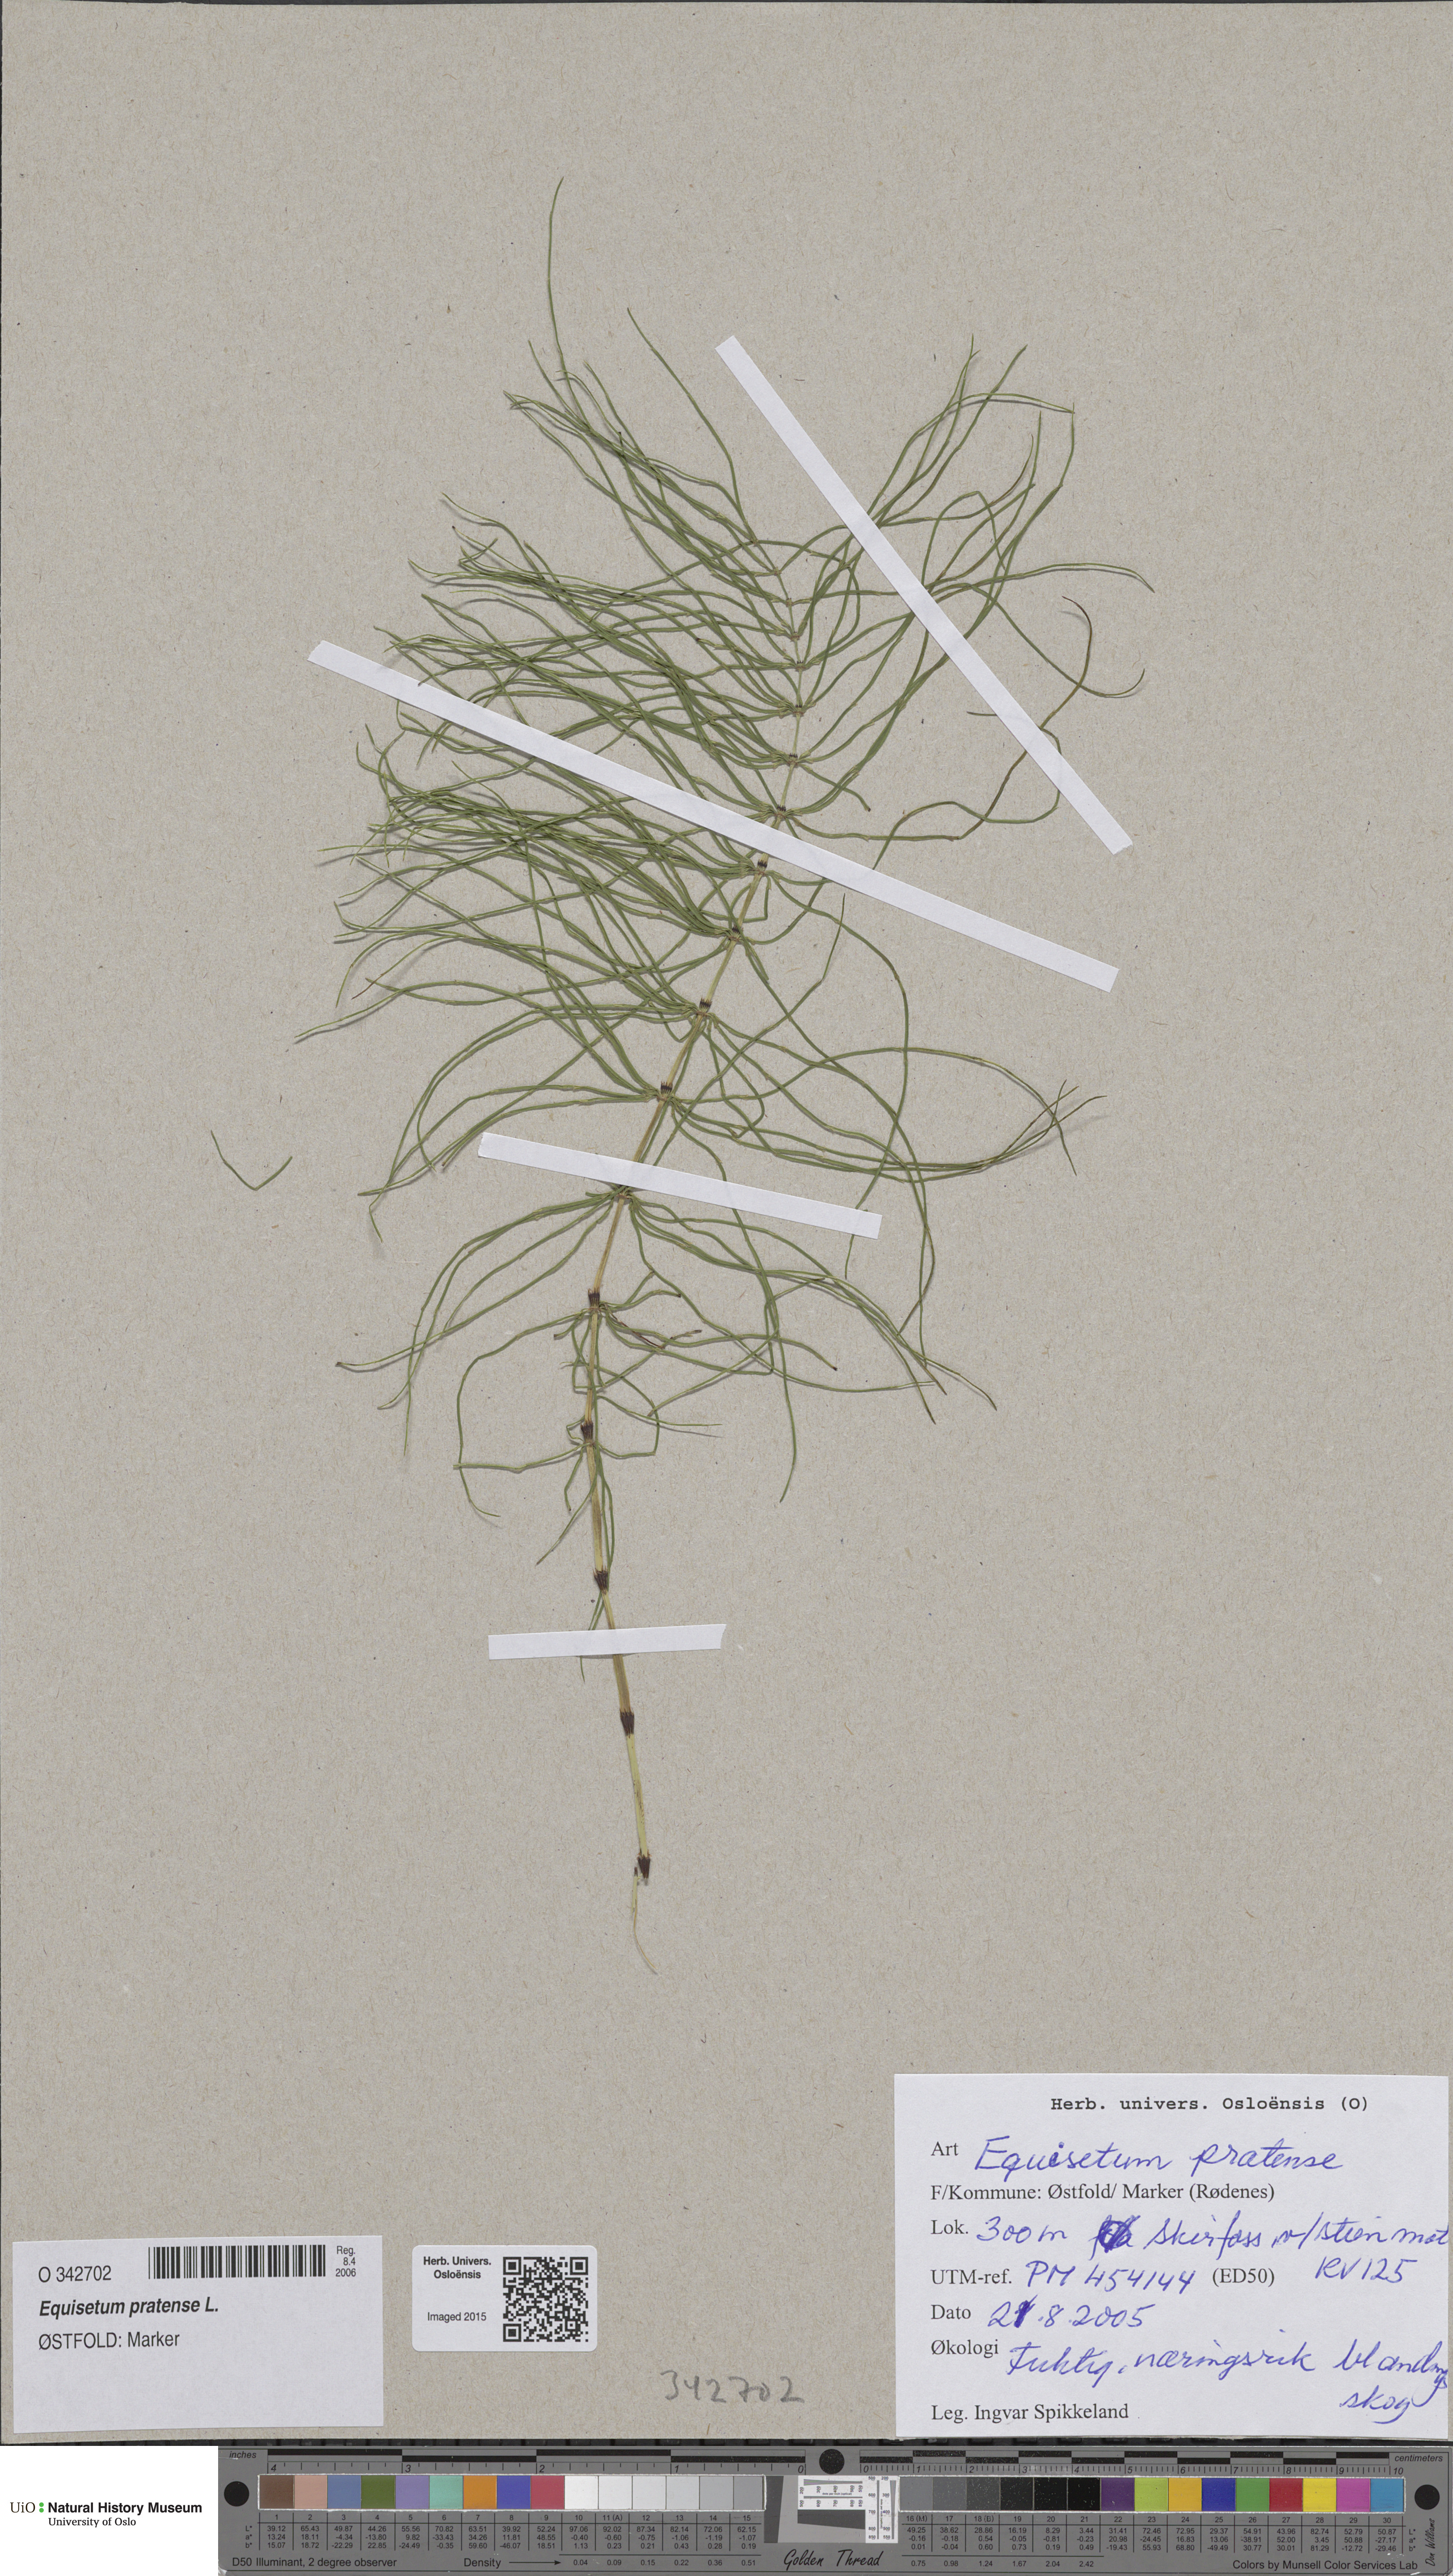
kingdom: Plantae
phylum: Tracheophyta
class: Polypodiopsida
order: Equisetales
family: Equisetaceae
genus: Equisetum
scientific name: Equisetum pratense
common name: Meadow horsetail
